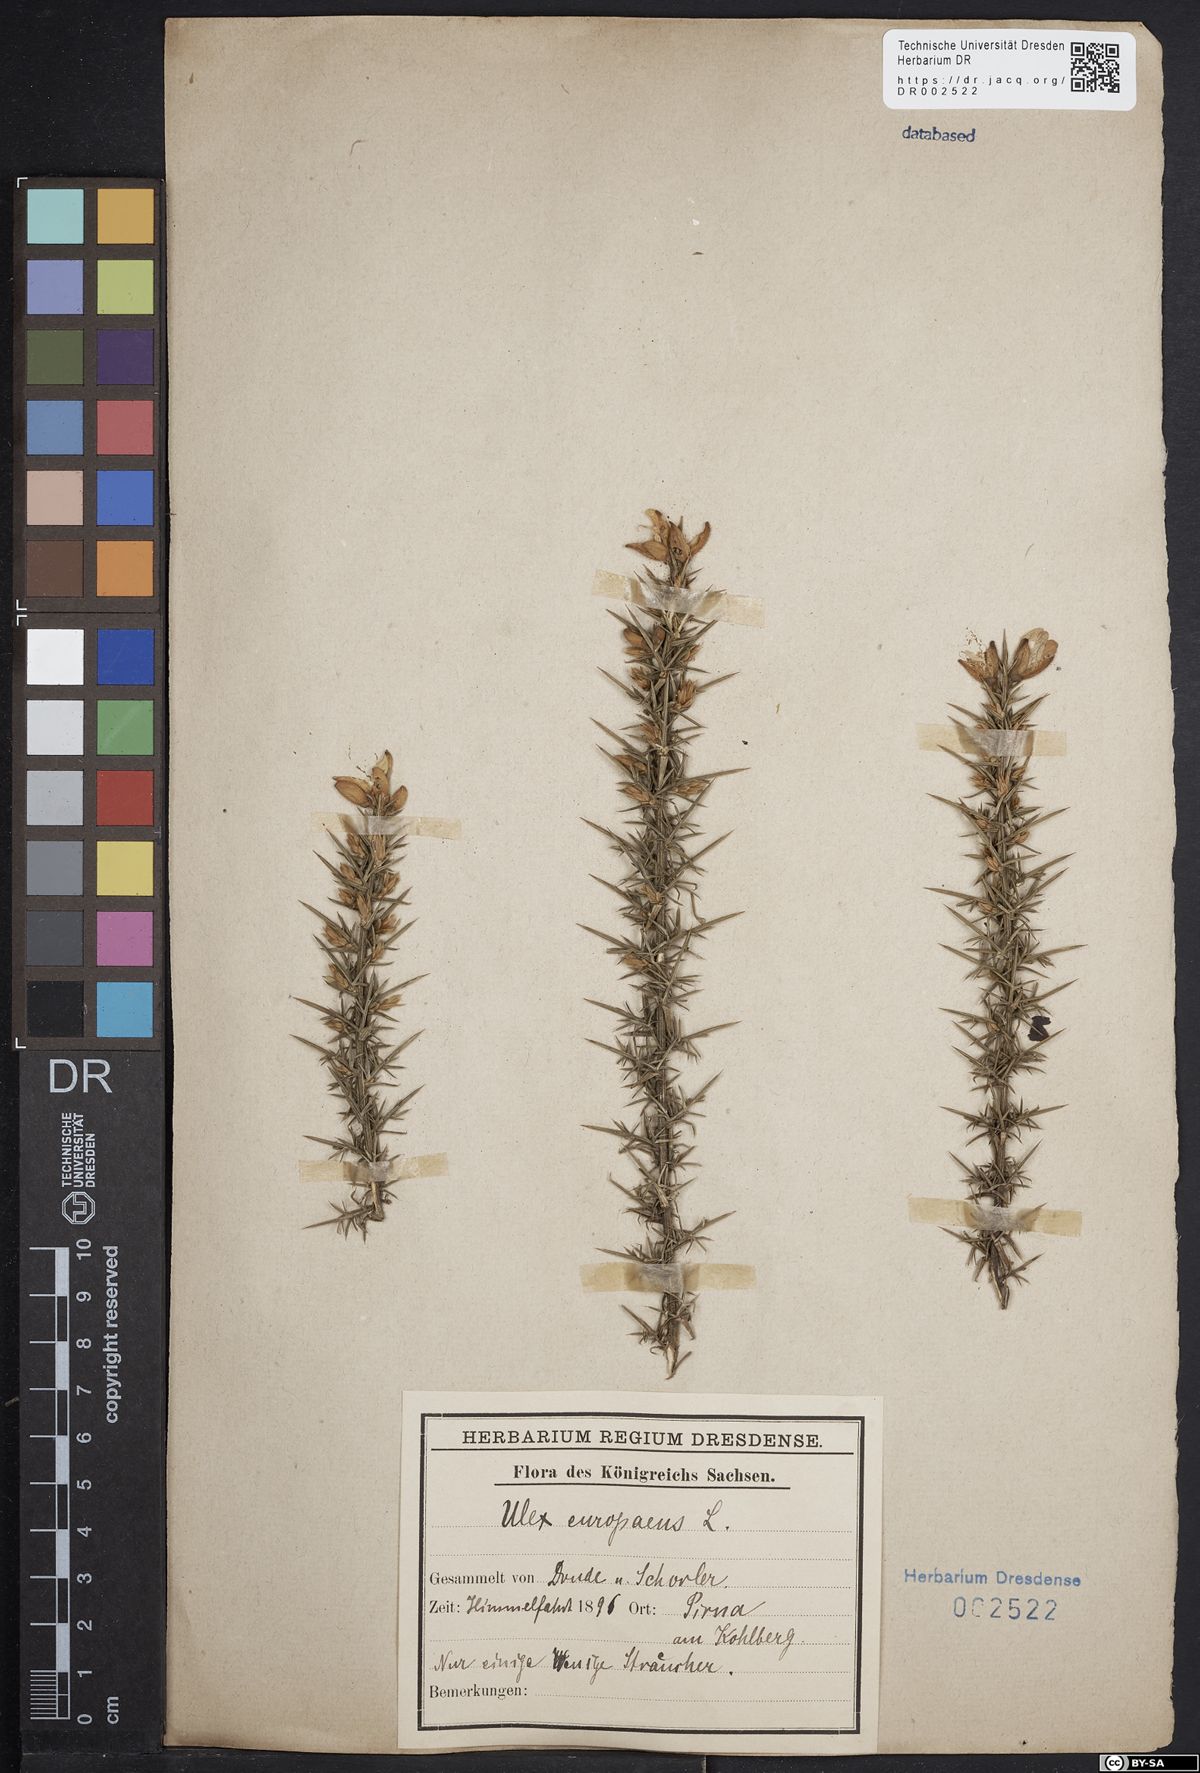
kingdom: Plantae
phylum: Tracheophyta
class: Magnoliopsida
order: Fabales
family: Fabaceae
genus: Ulex
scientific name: Ulex europaeus
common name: Common gorse
